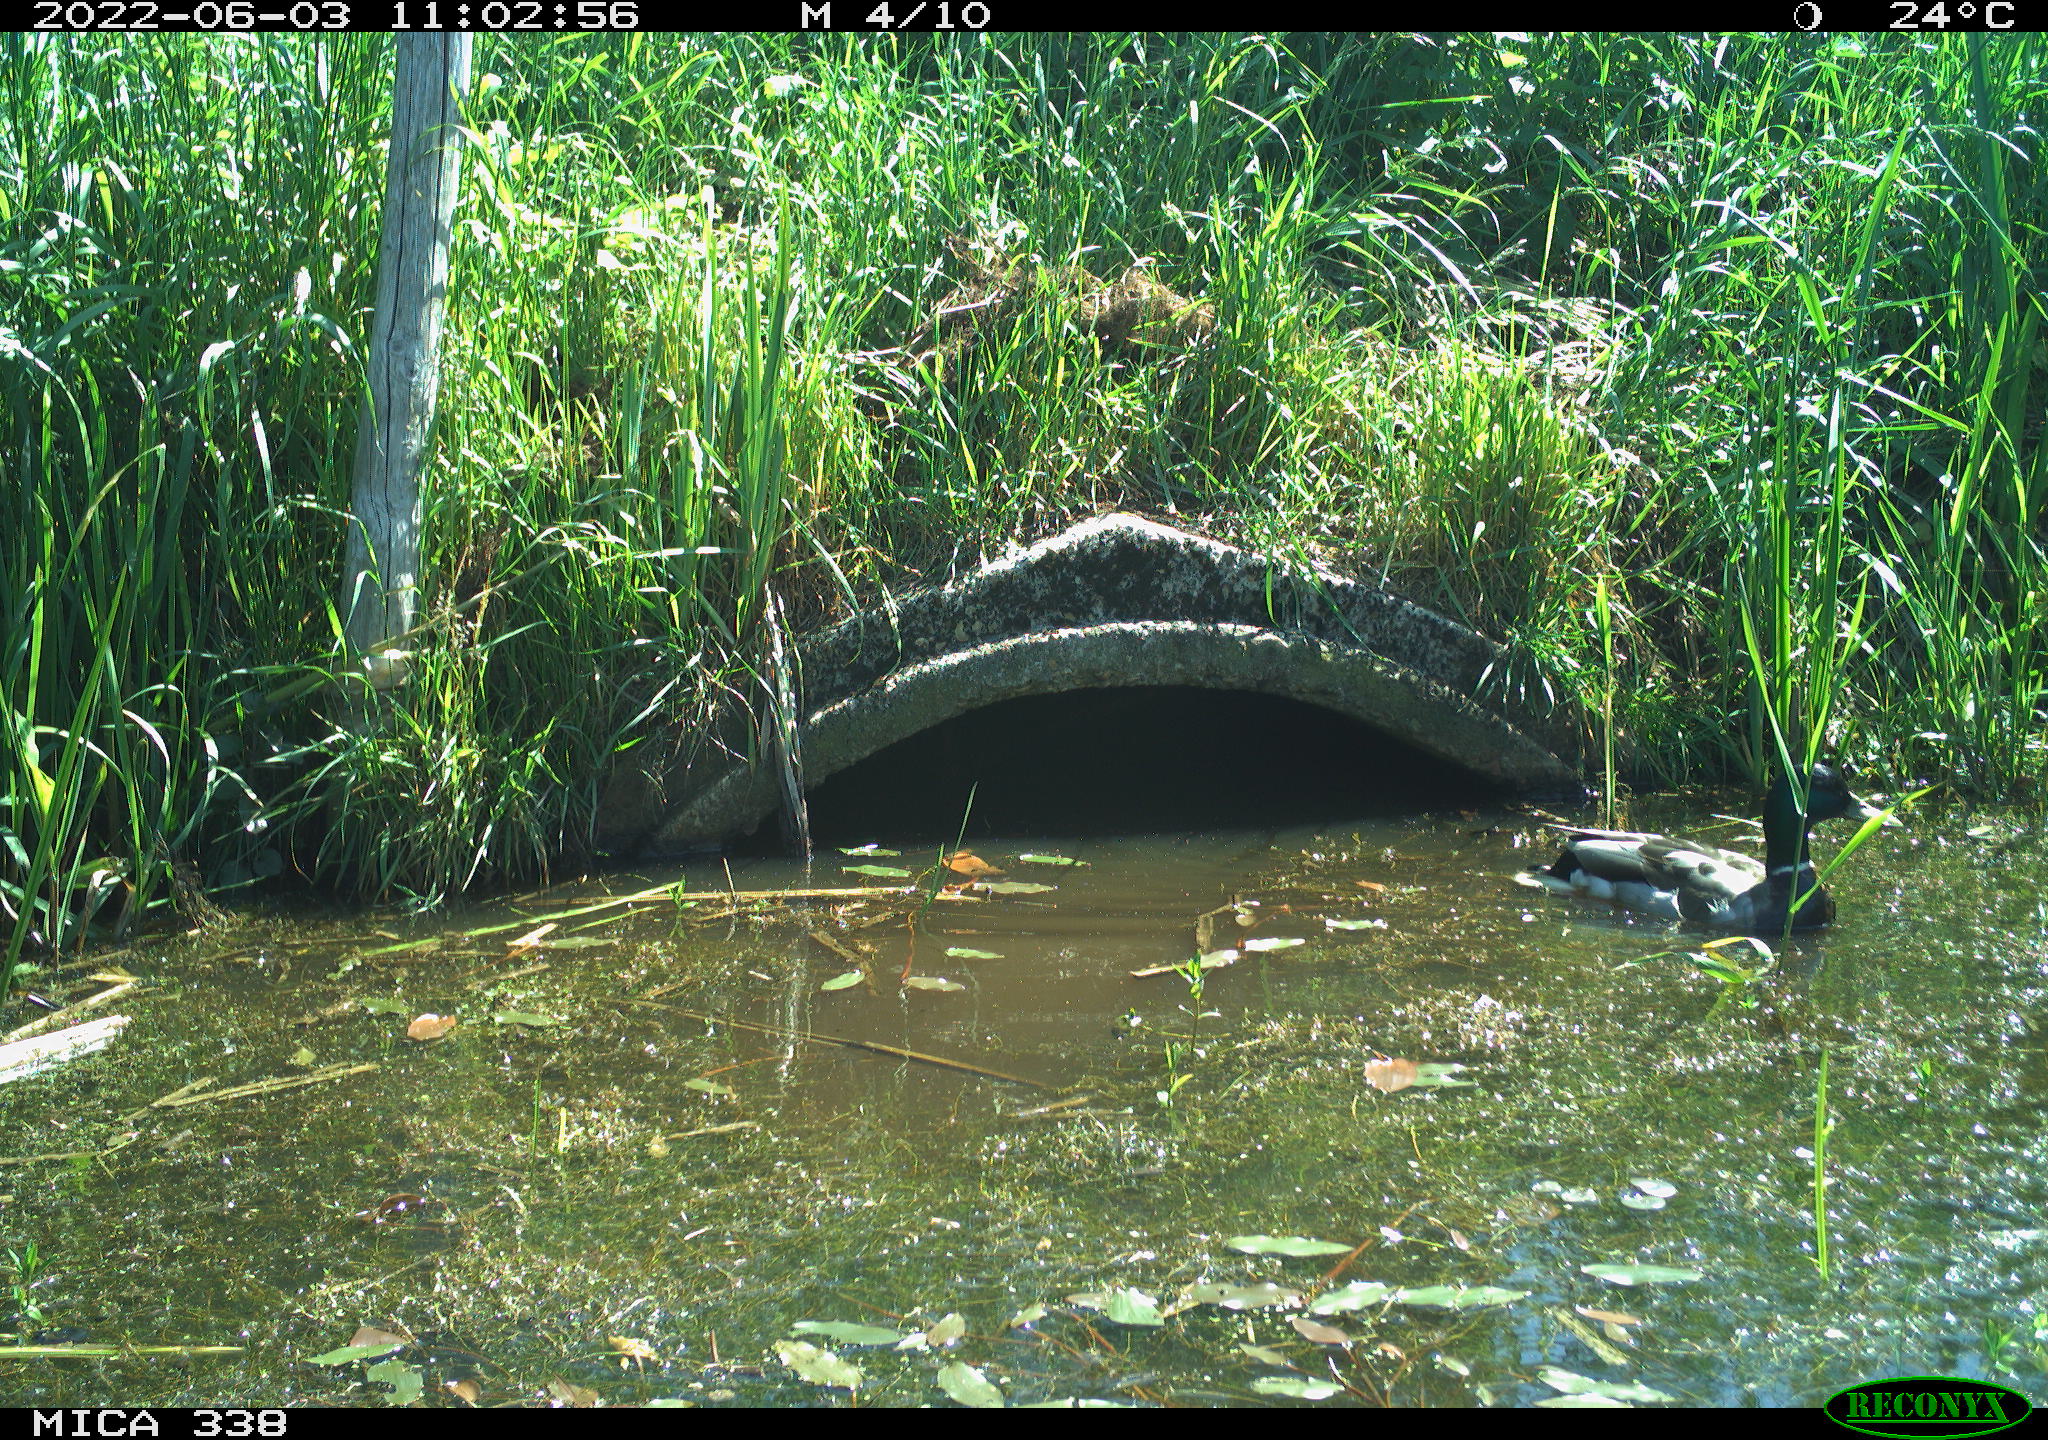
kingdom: Animalia
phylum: Chordata
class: Aves
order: Anseriformes
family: Anatidae
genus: Anas
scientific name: Anas platyrhynchos
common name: Mallard
